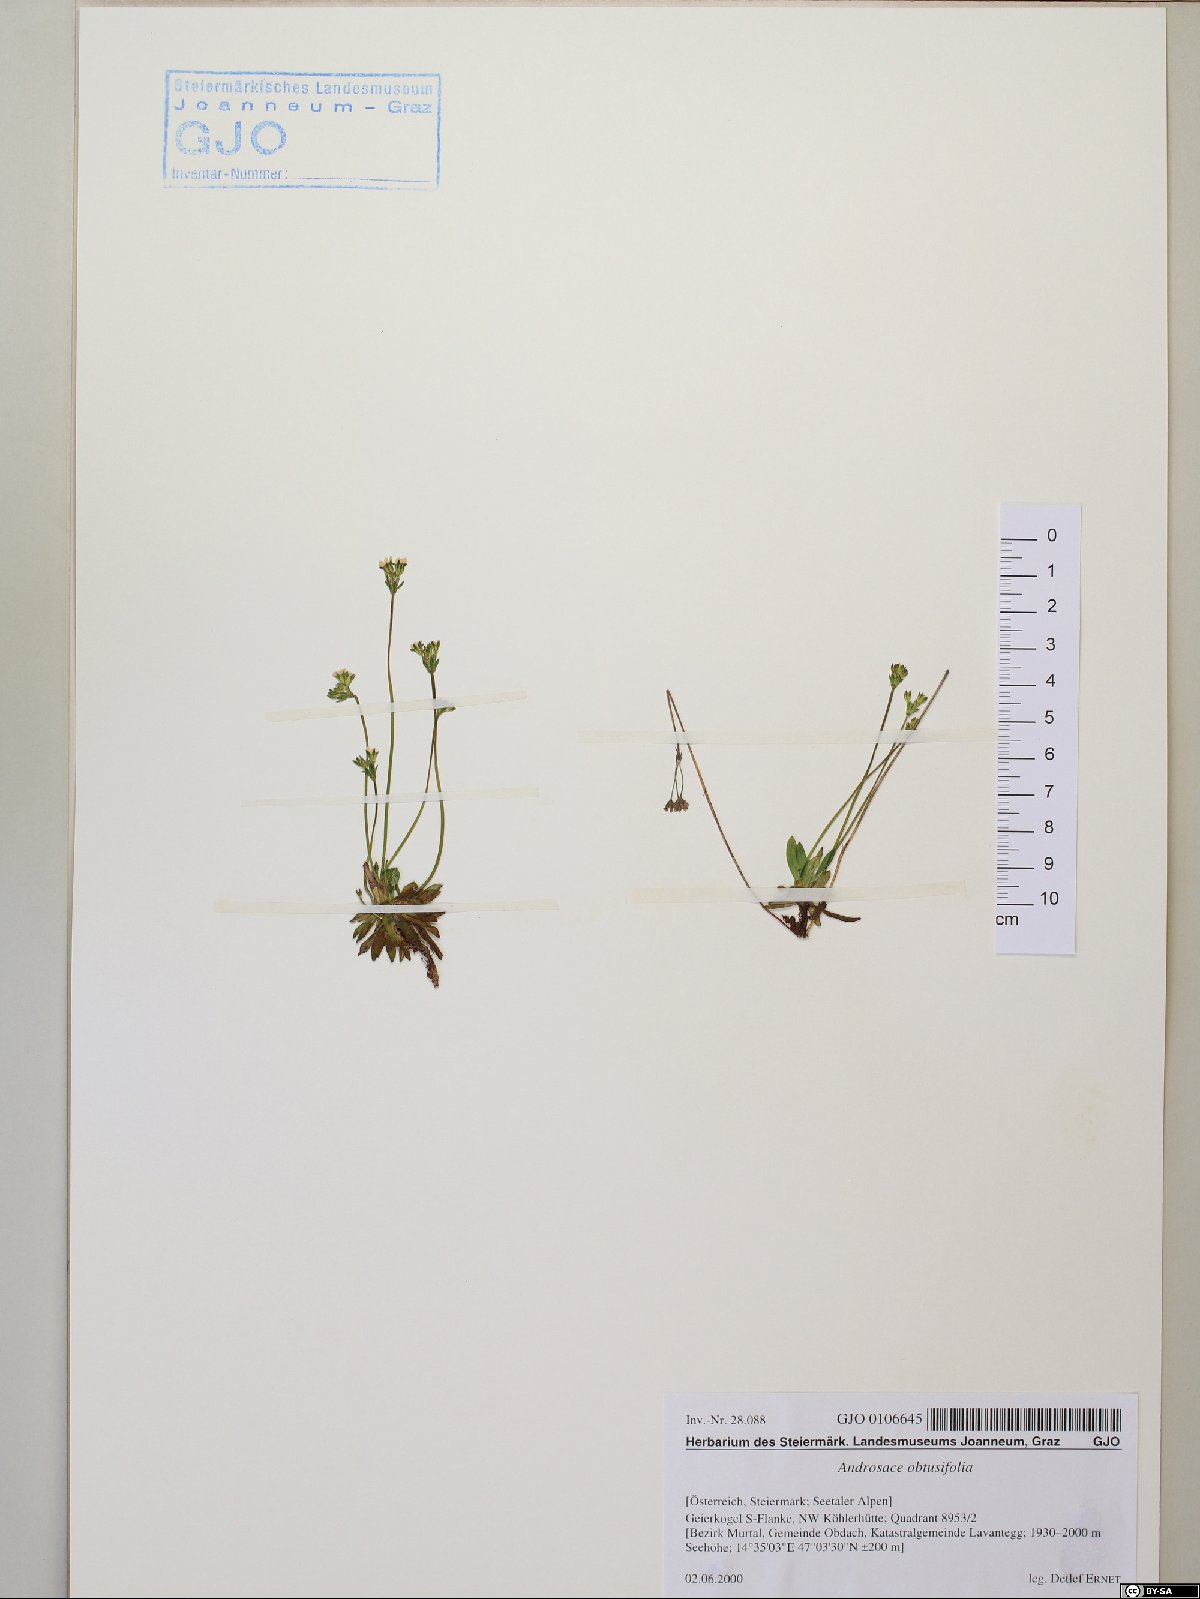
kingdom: Plantae
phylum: Tracheophyta
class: Magnoliopsida
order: Ericales
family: Primulaceae
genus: Androsace
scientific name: Androsace obtusifolia
